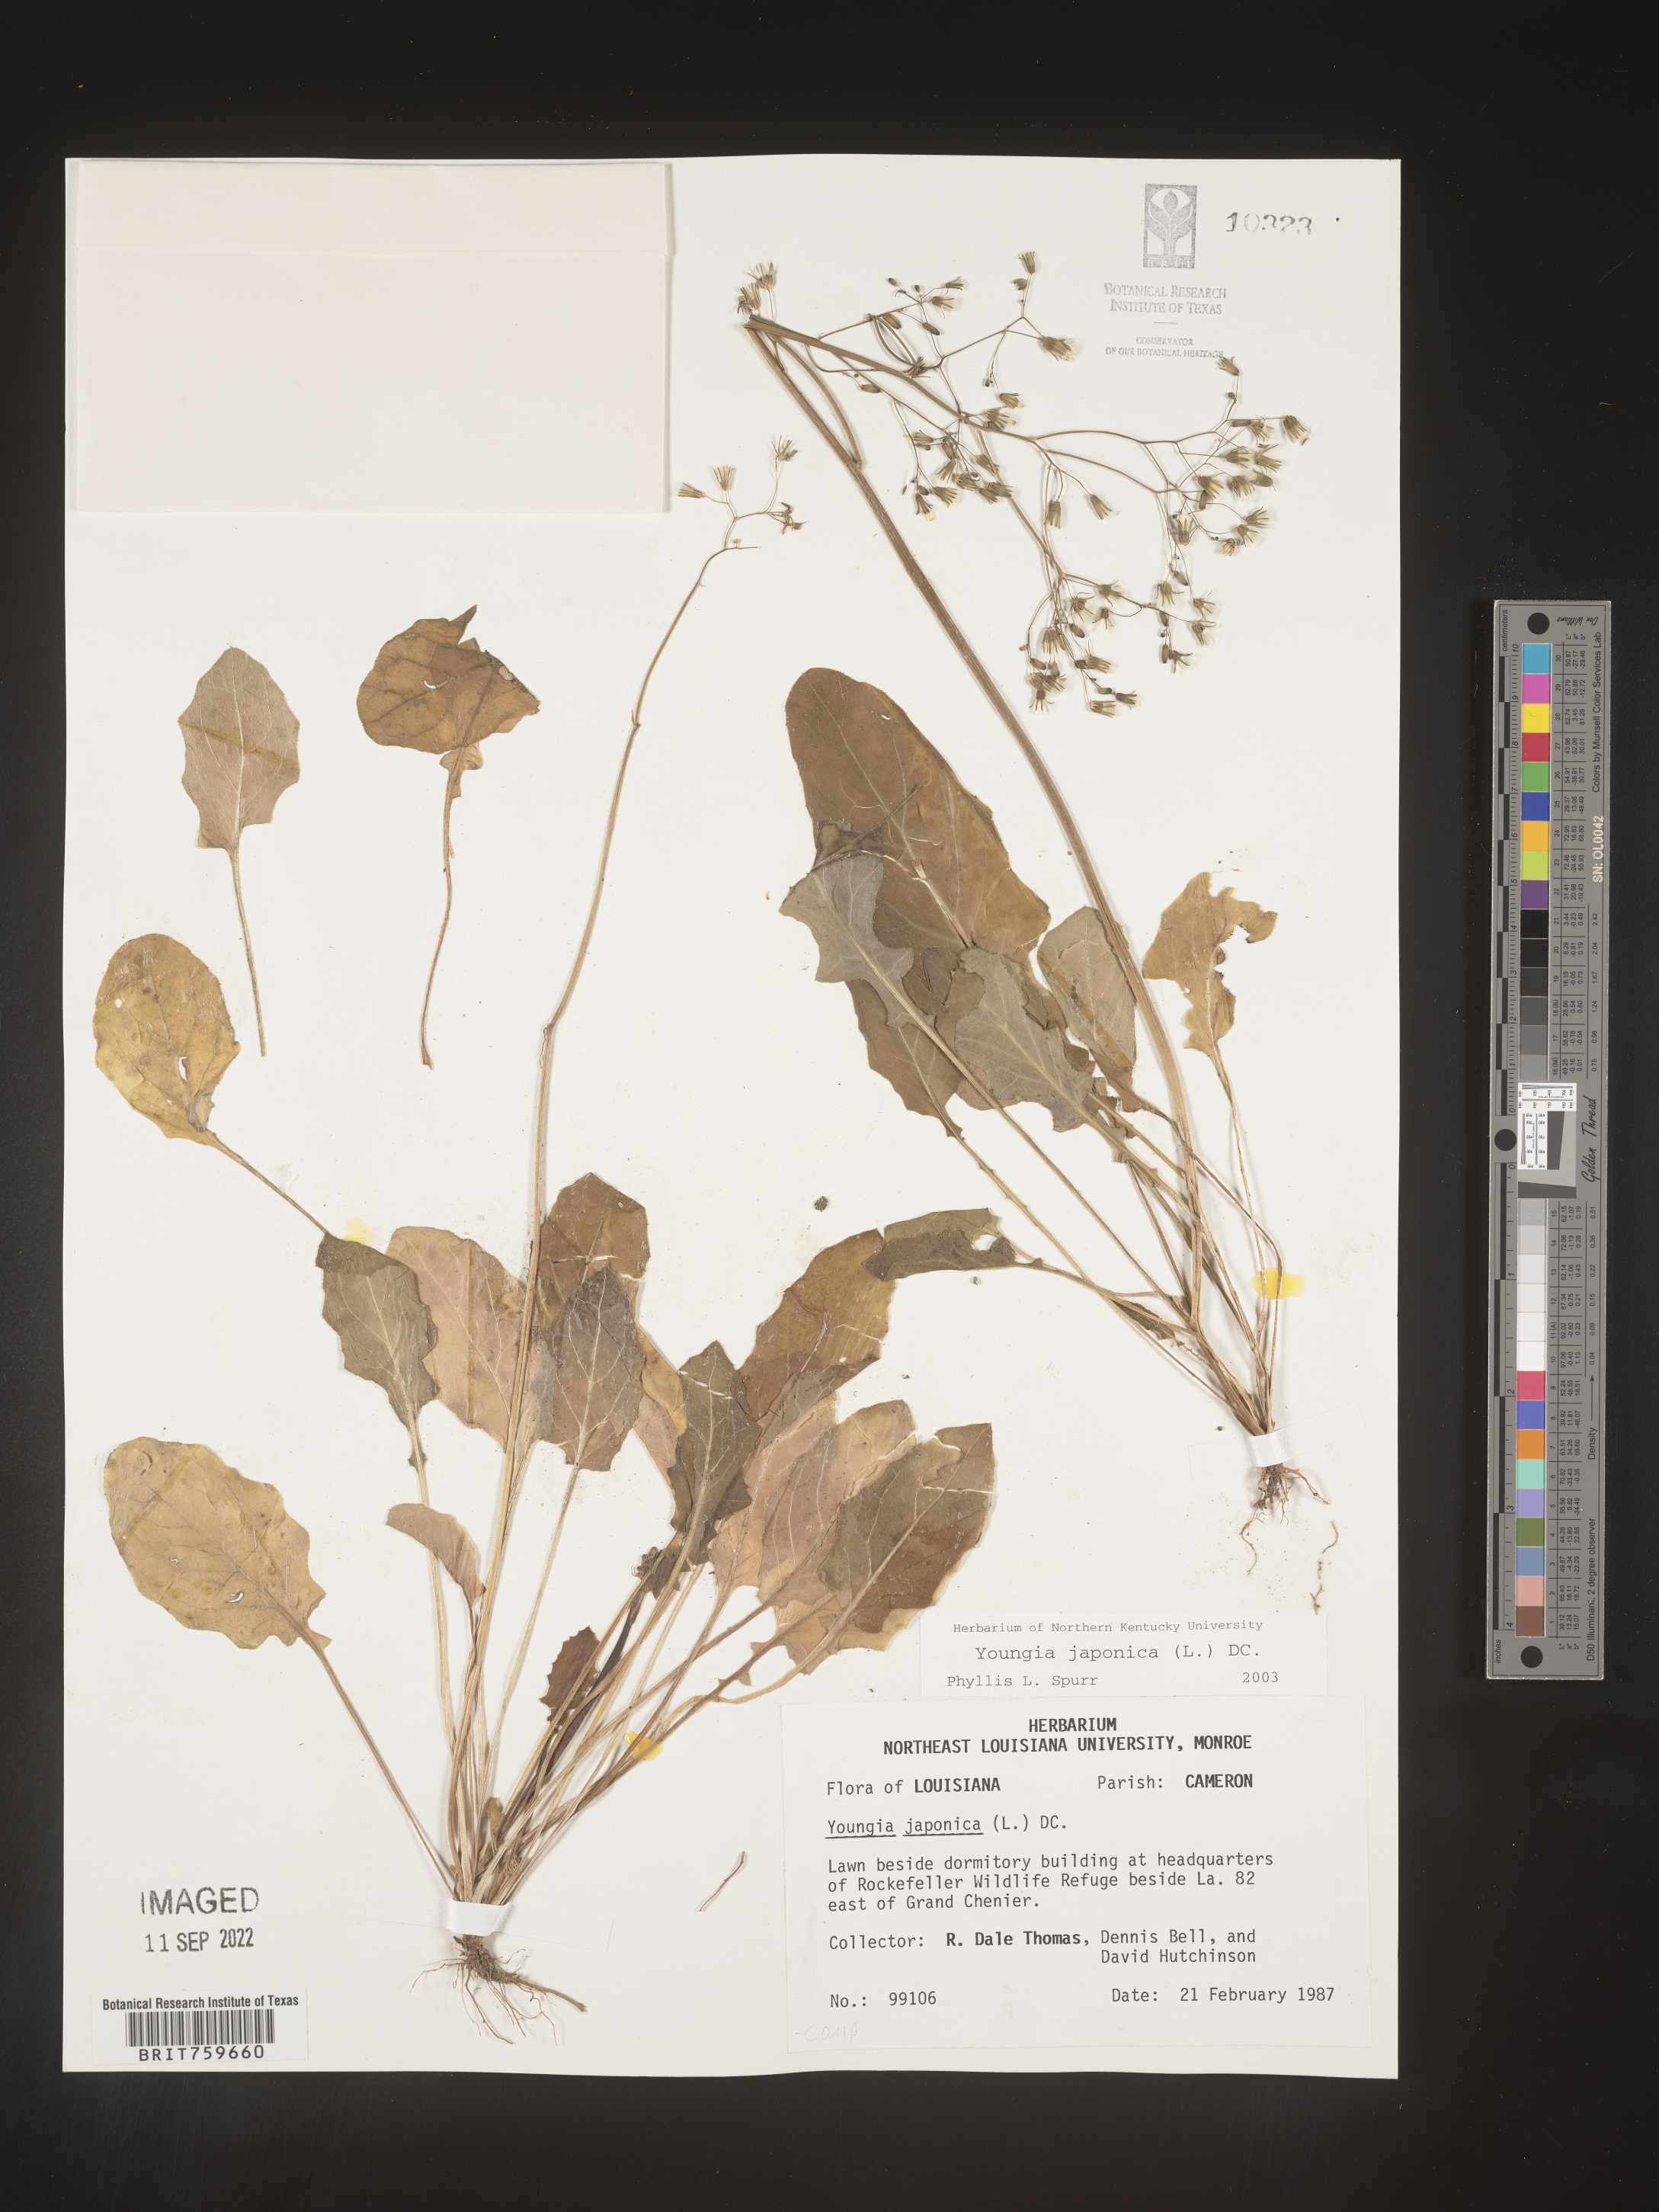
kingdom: Plantae
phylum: Tracheophyta
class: Magnoliopsida
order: Asterales
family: Asteraceae
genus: Youngia
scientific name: Youngia japonica
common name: Oriental false hawksbeard
